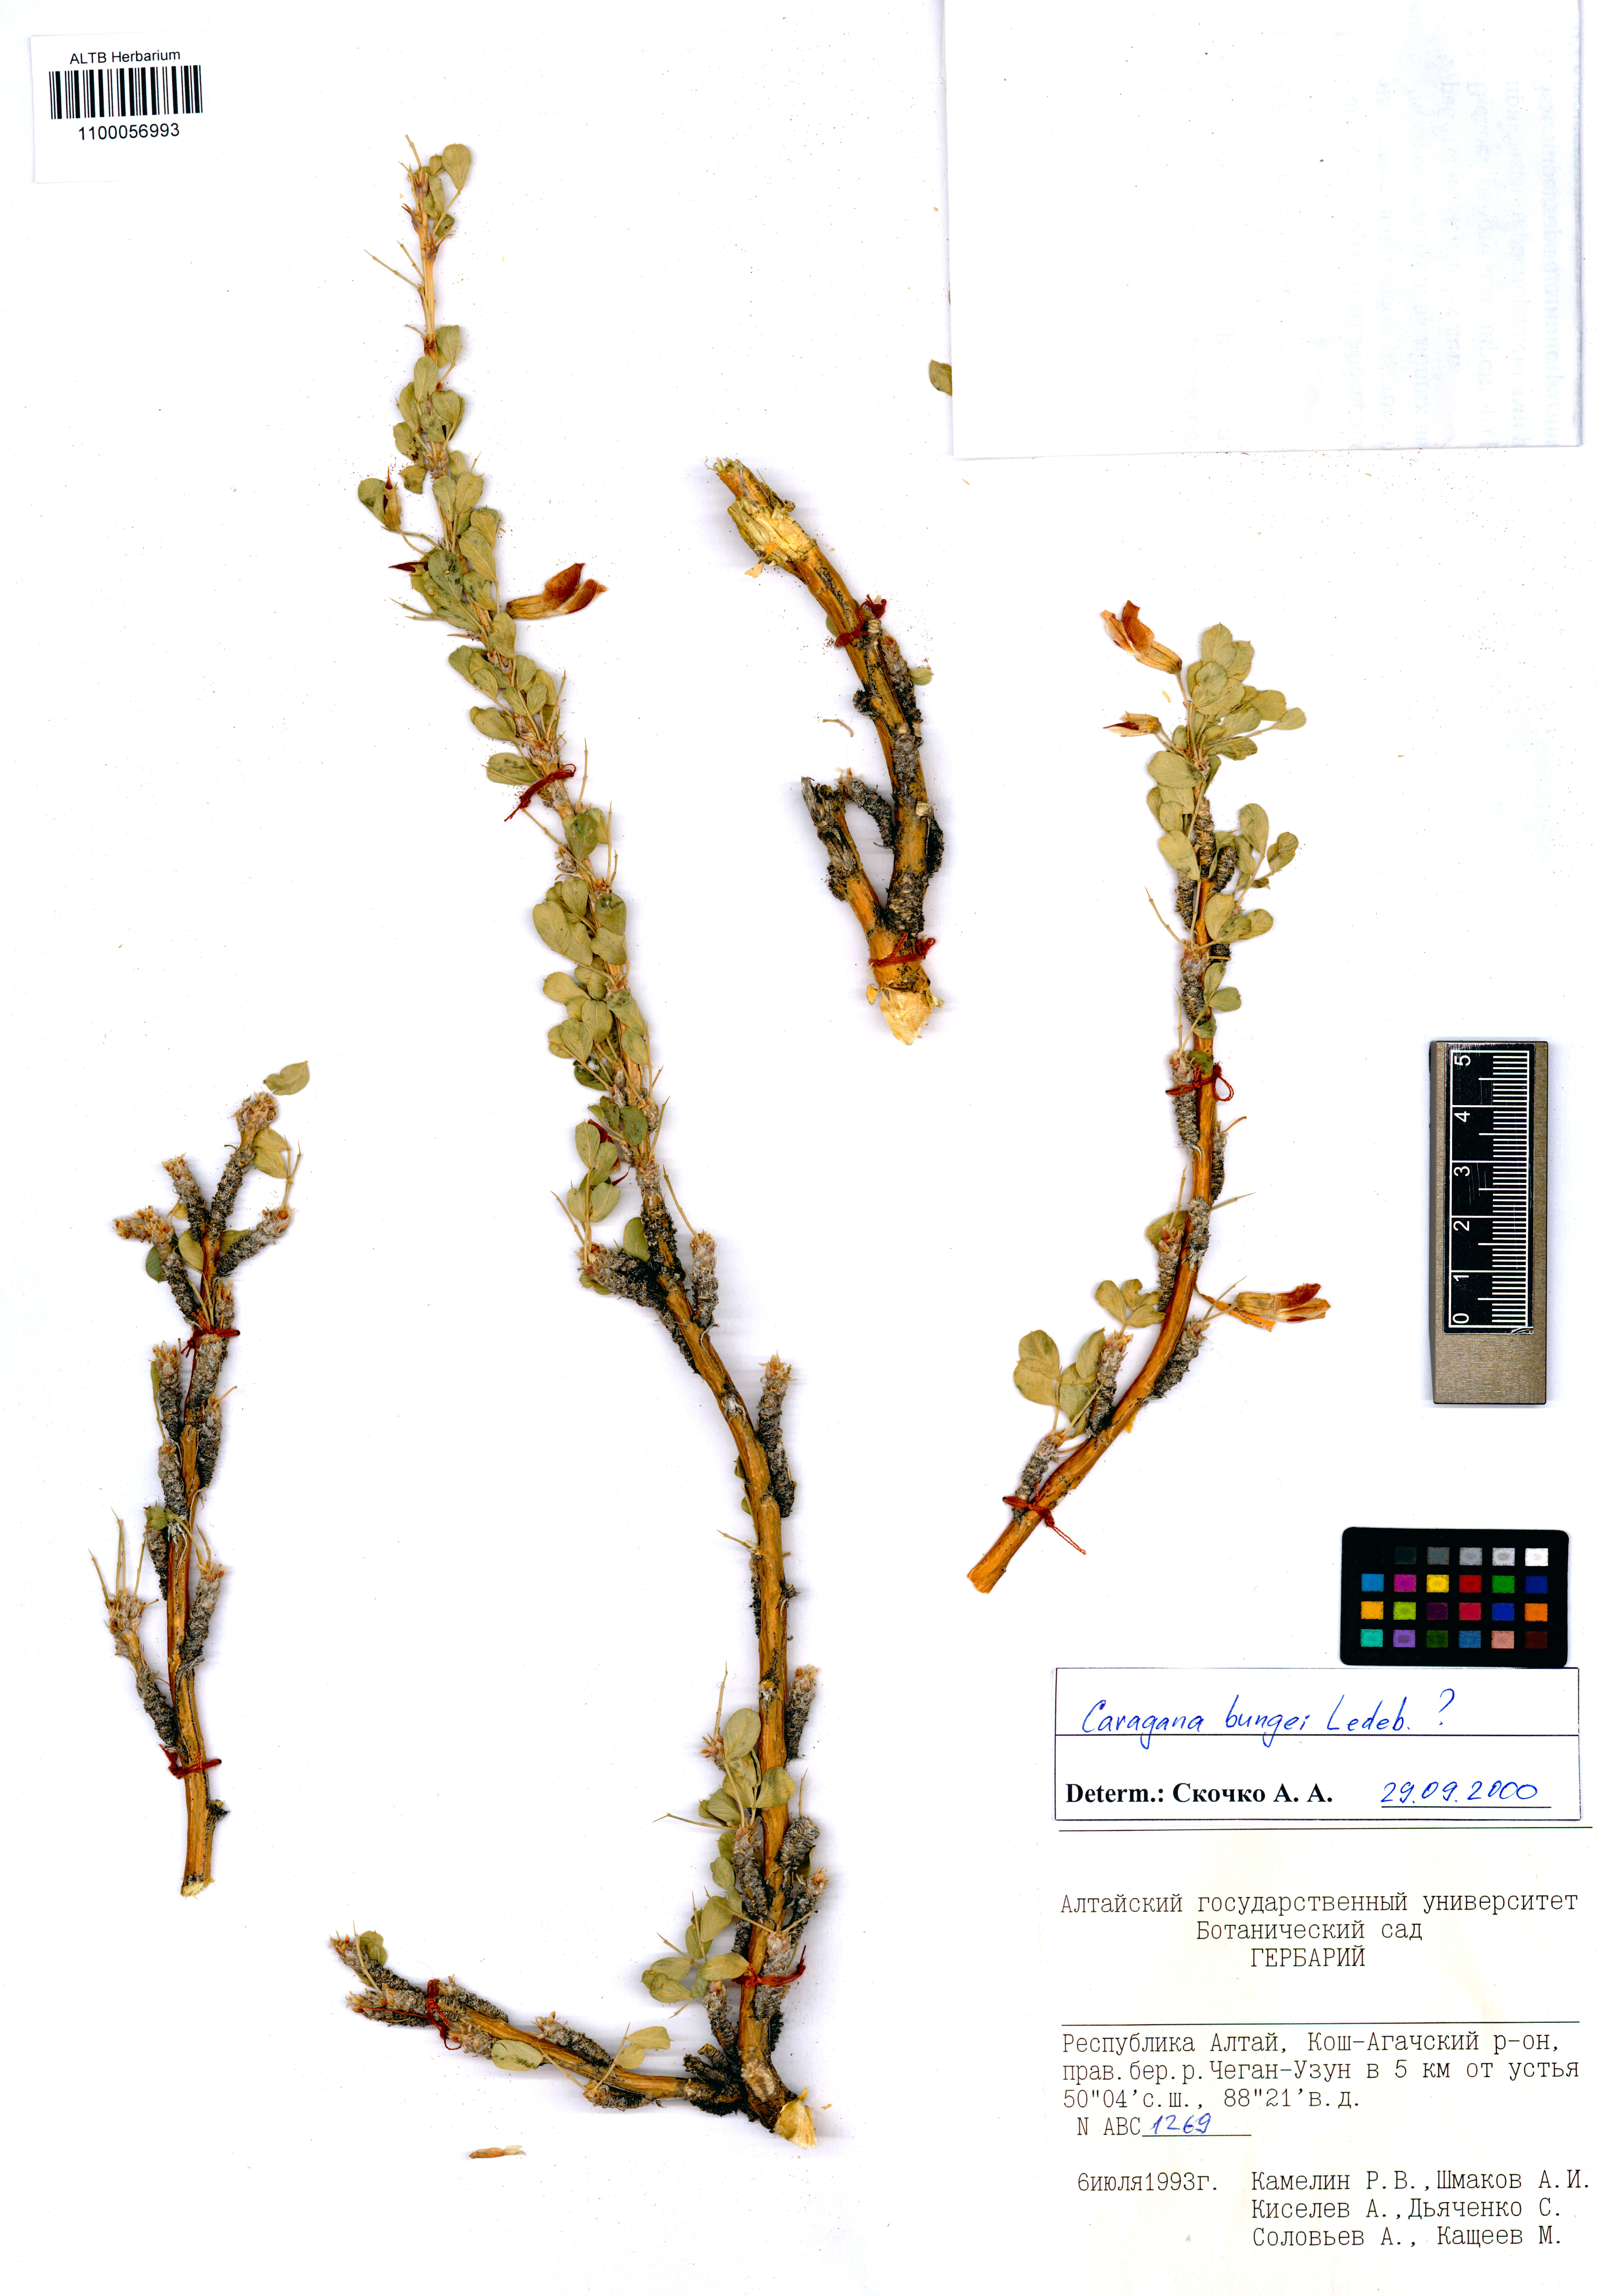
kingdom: Plantae
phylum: Tracheophyta
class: Magnoliopsida
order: Fabales
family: Fabaceae
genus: Caragana
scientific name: Caragana bungei
